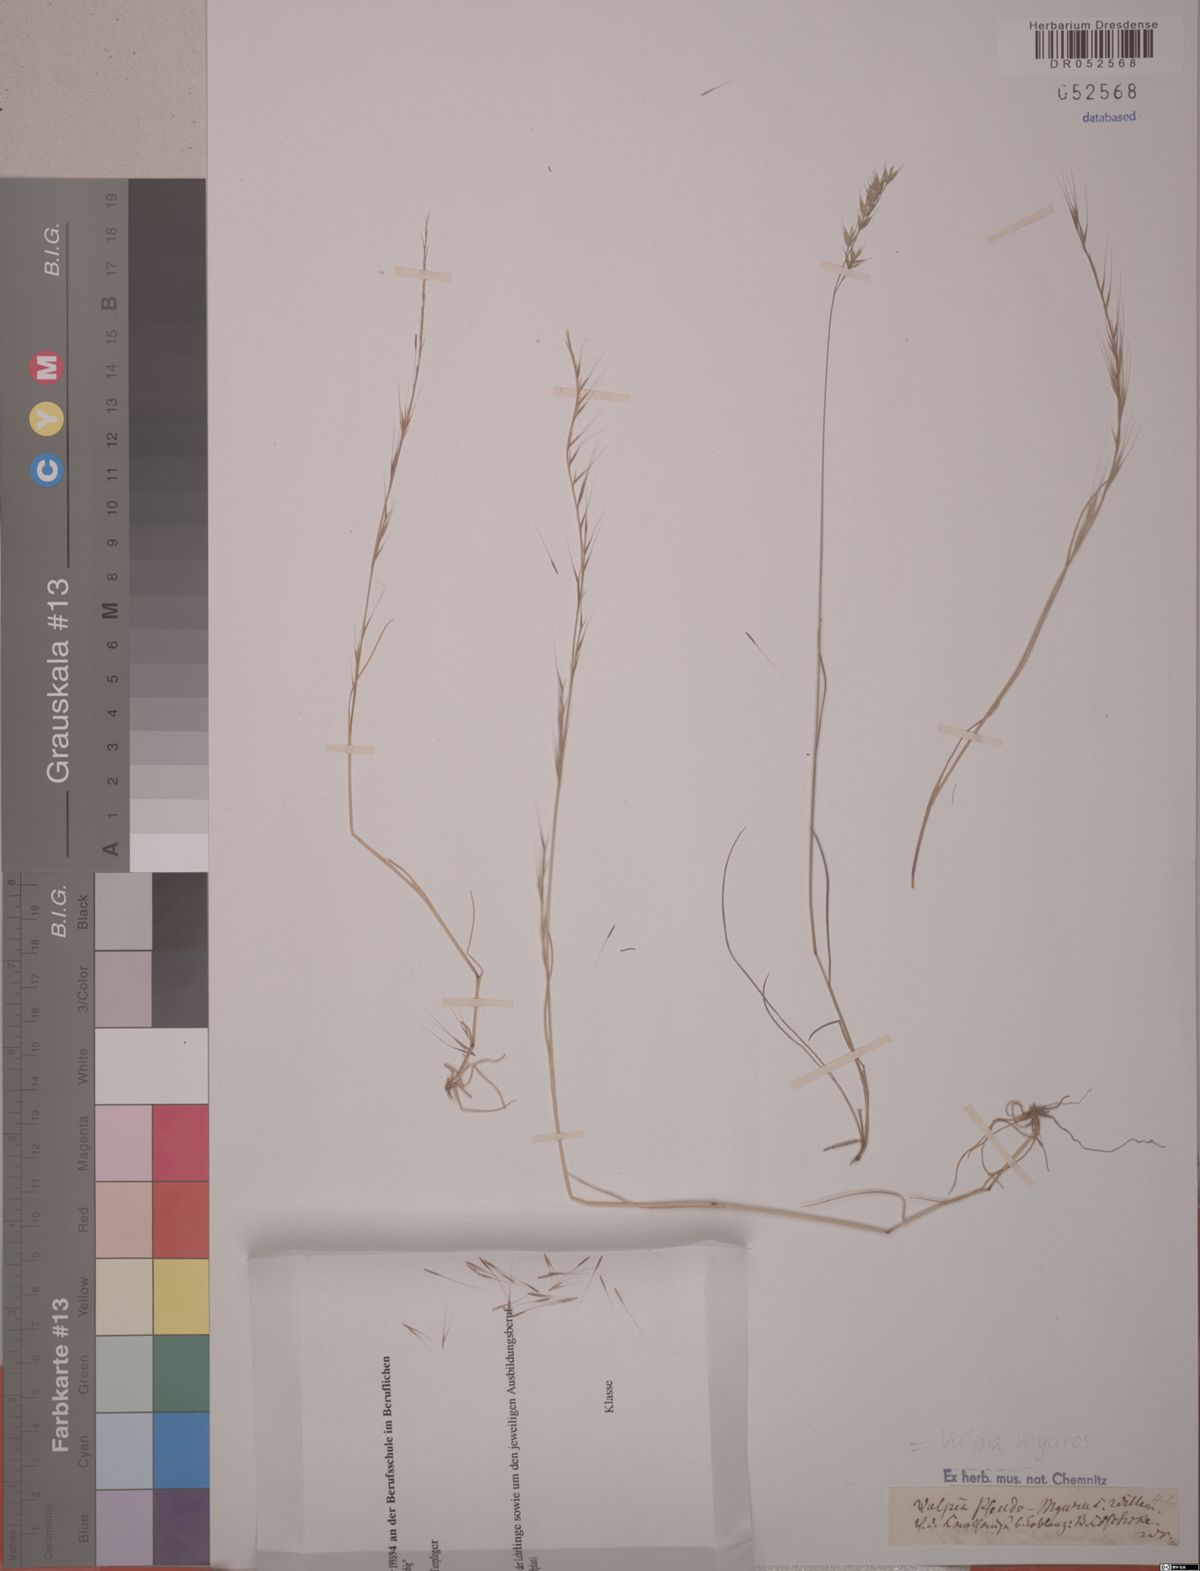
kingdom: Plantae
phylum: Tracheophyta
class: Liliopsida
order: Poales
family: Poaceae
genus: Festuca
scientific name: Festuca myuros
